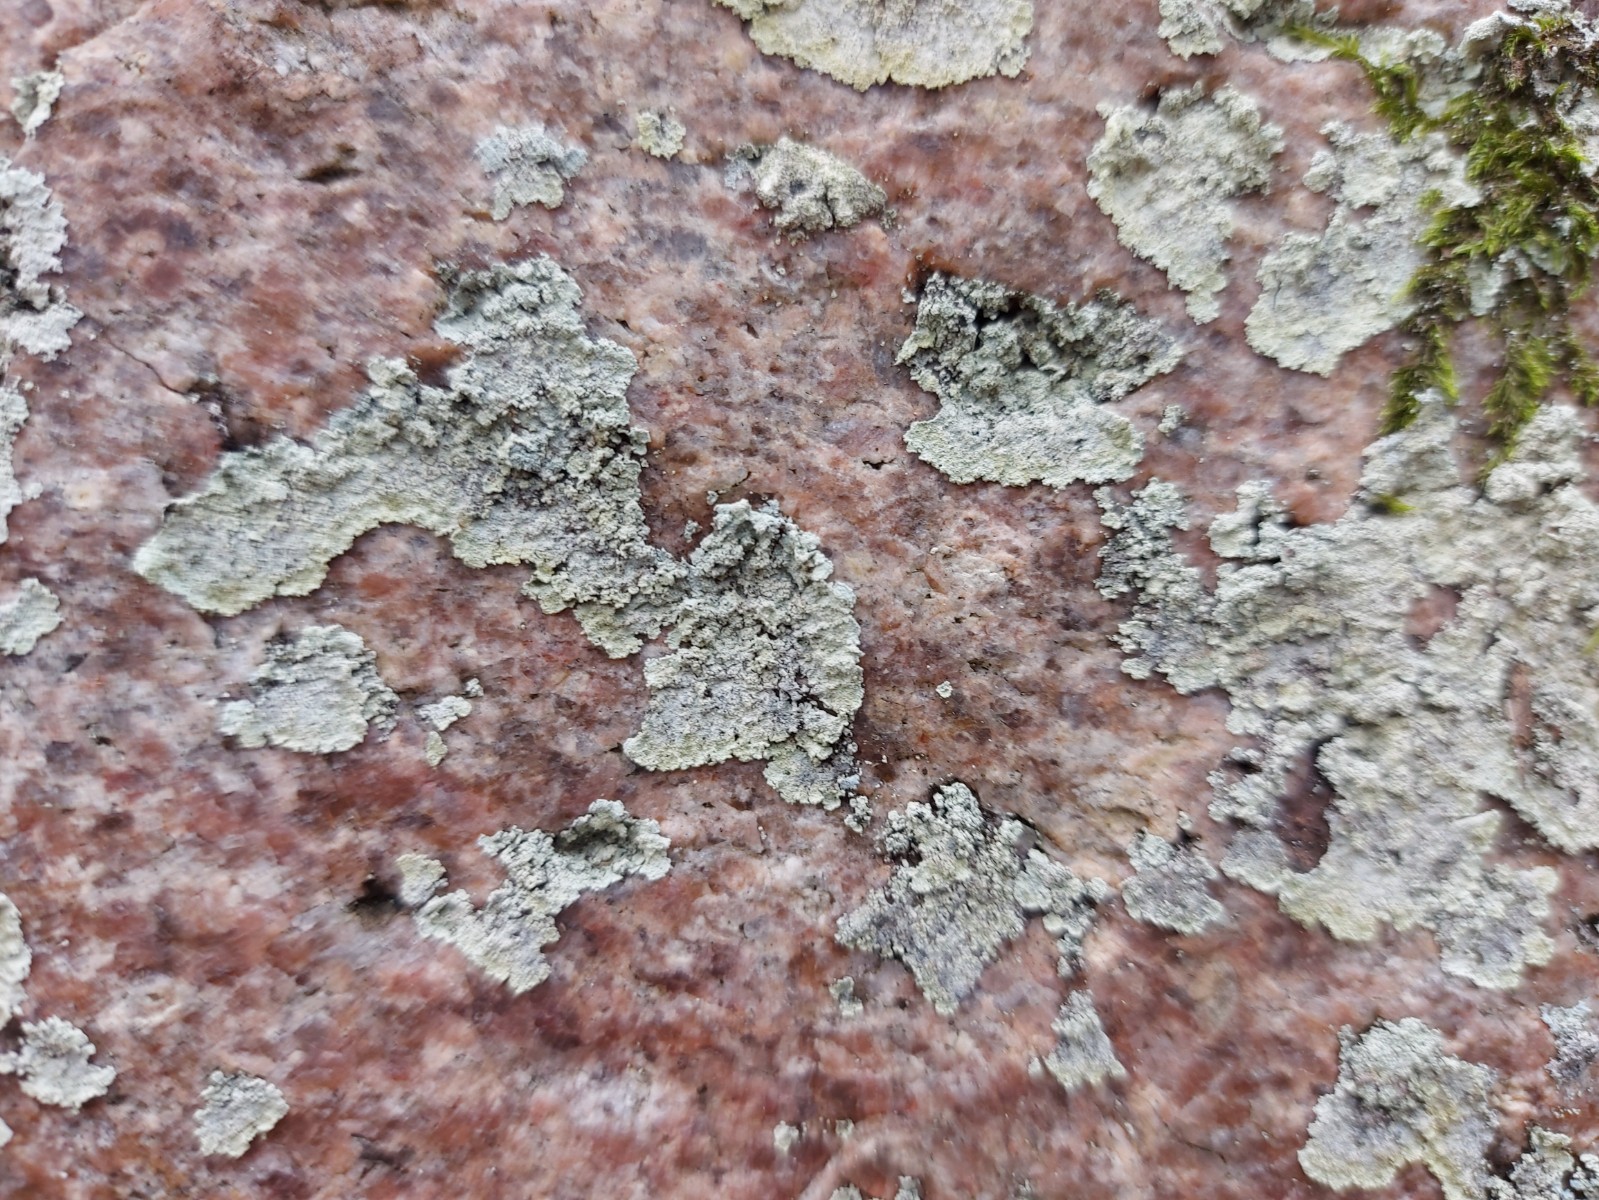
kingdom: Fungi
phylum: Ascomycota
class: Lecanoromycetes
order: Lecanorales
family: Stereocaulaceae
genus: Lepraria
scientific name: Lepraria membranacea
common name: bredfliget støvlav
